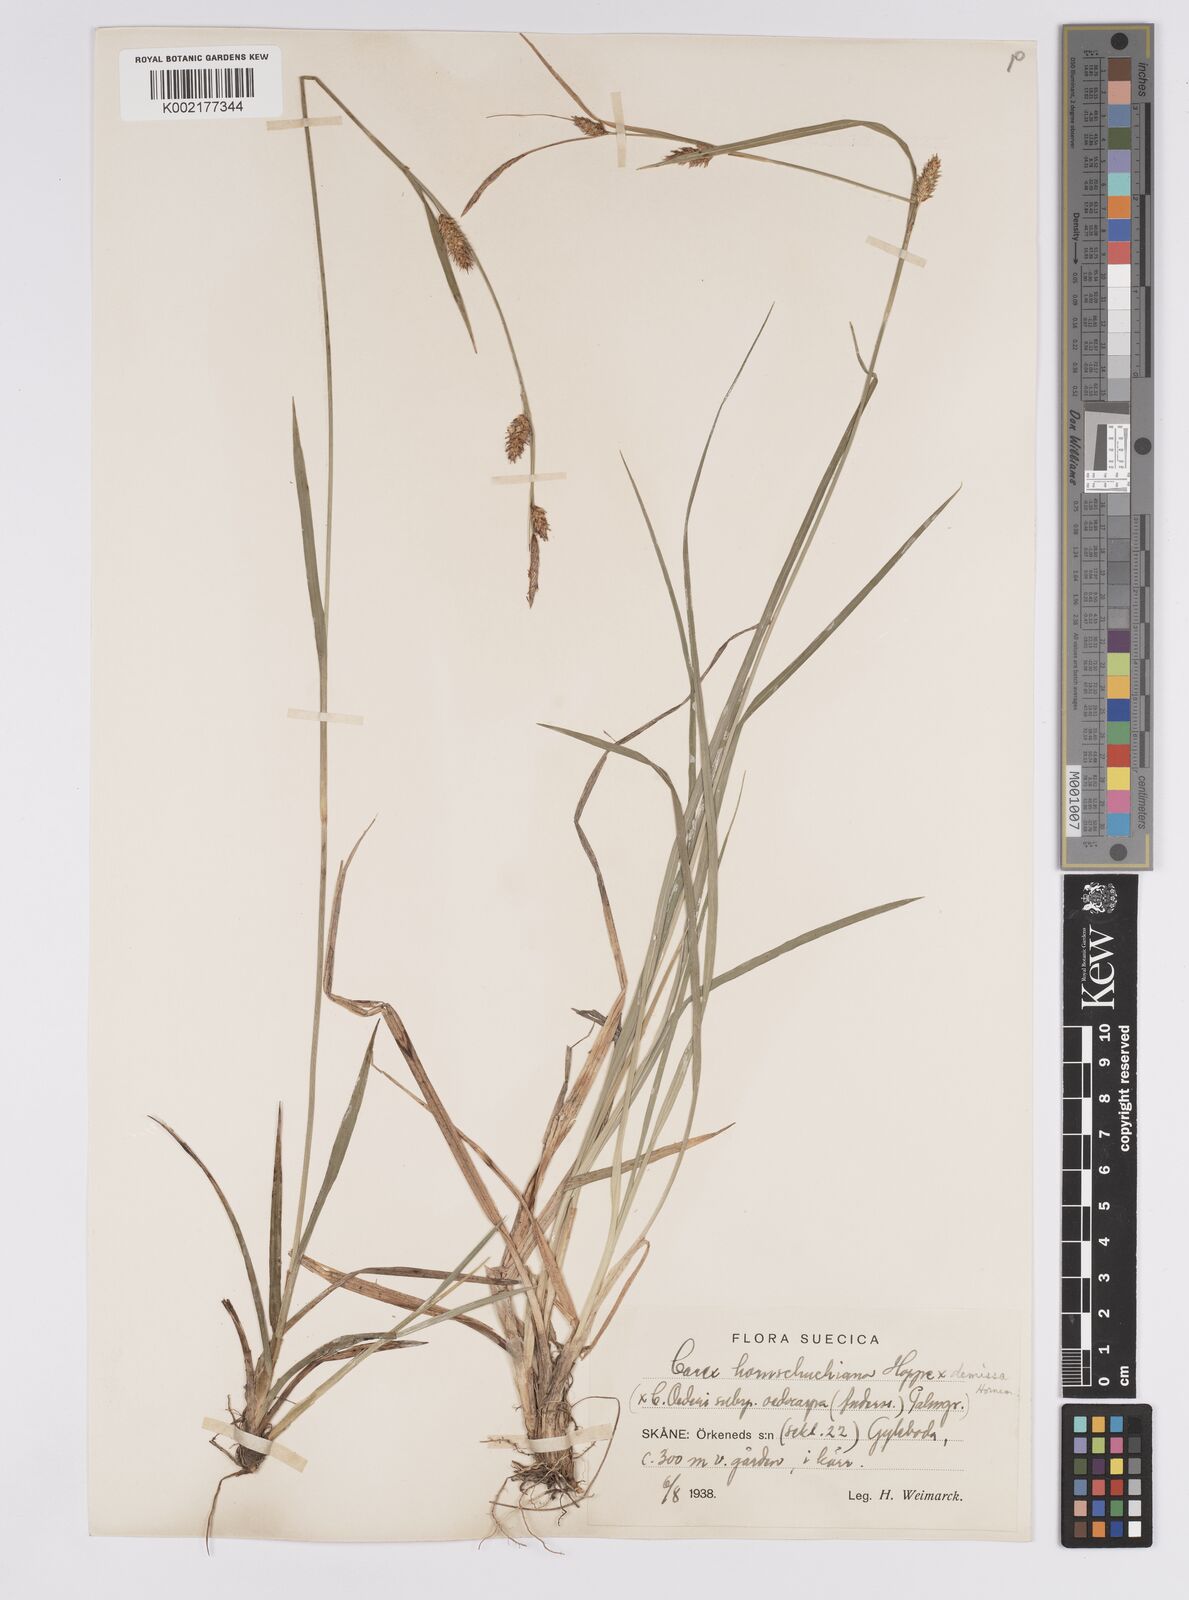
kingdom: Plantae
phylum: Tracheophyta
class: Liliopsida
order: Poales
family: Cyperaceae
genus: Carex
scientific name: Carex hostiana
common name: Tawny sedge
